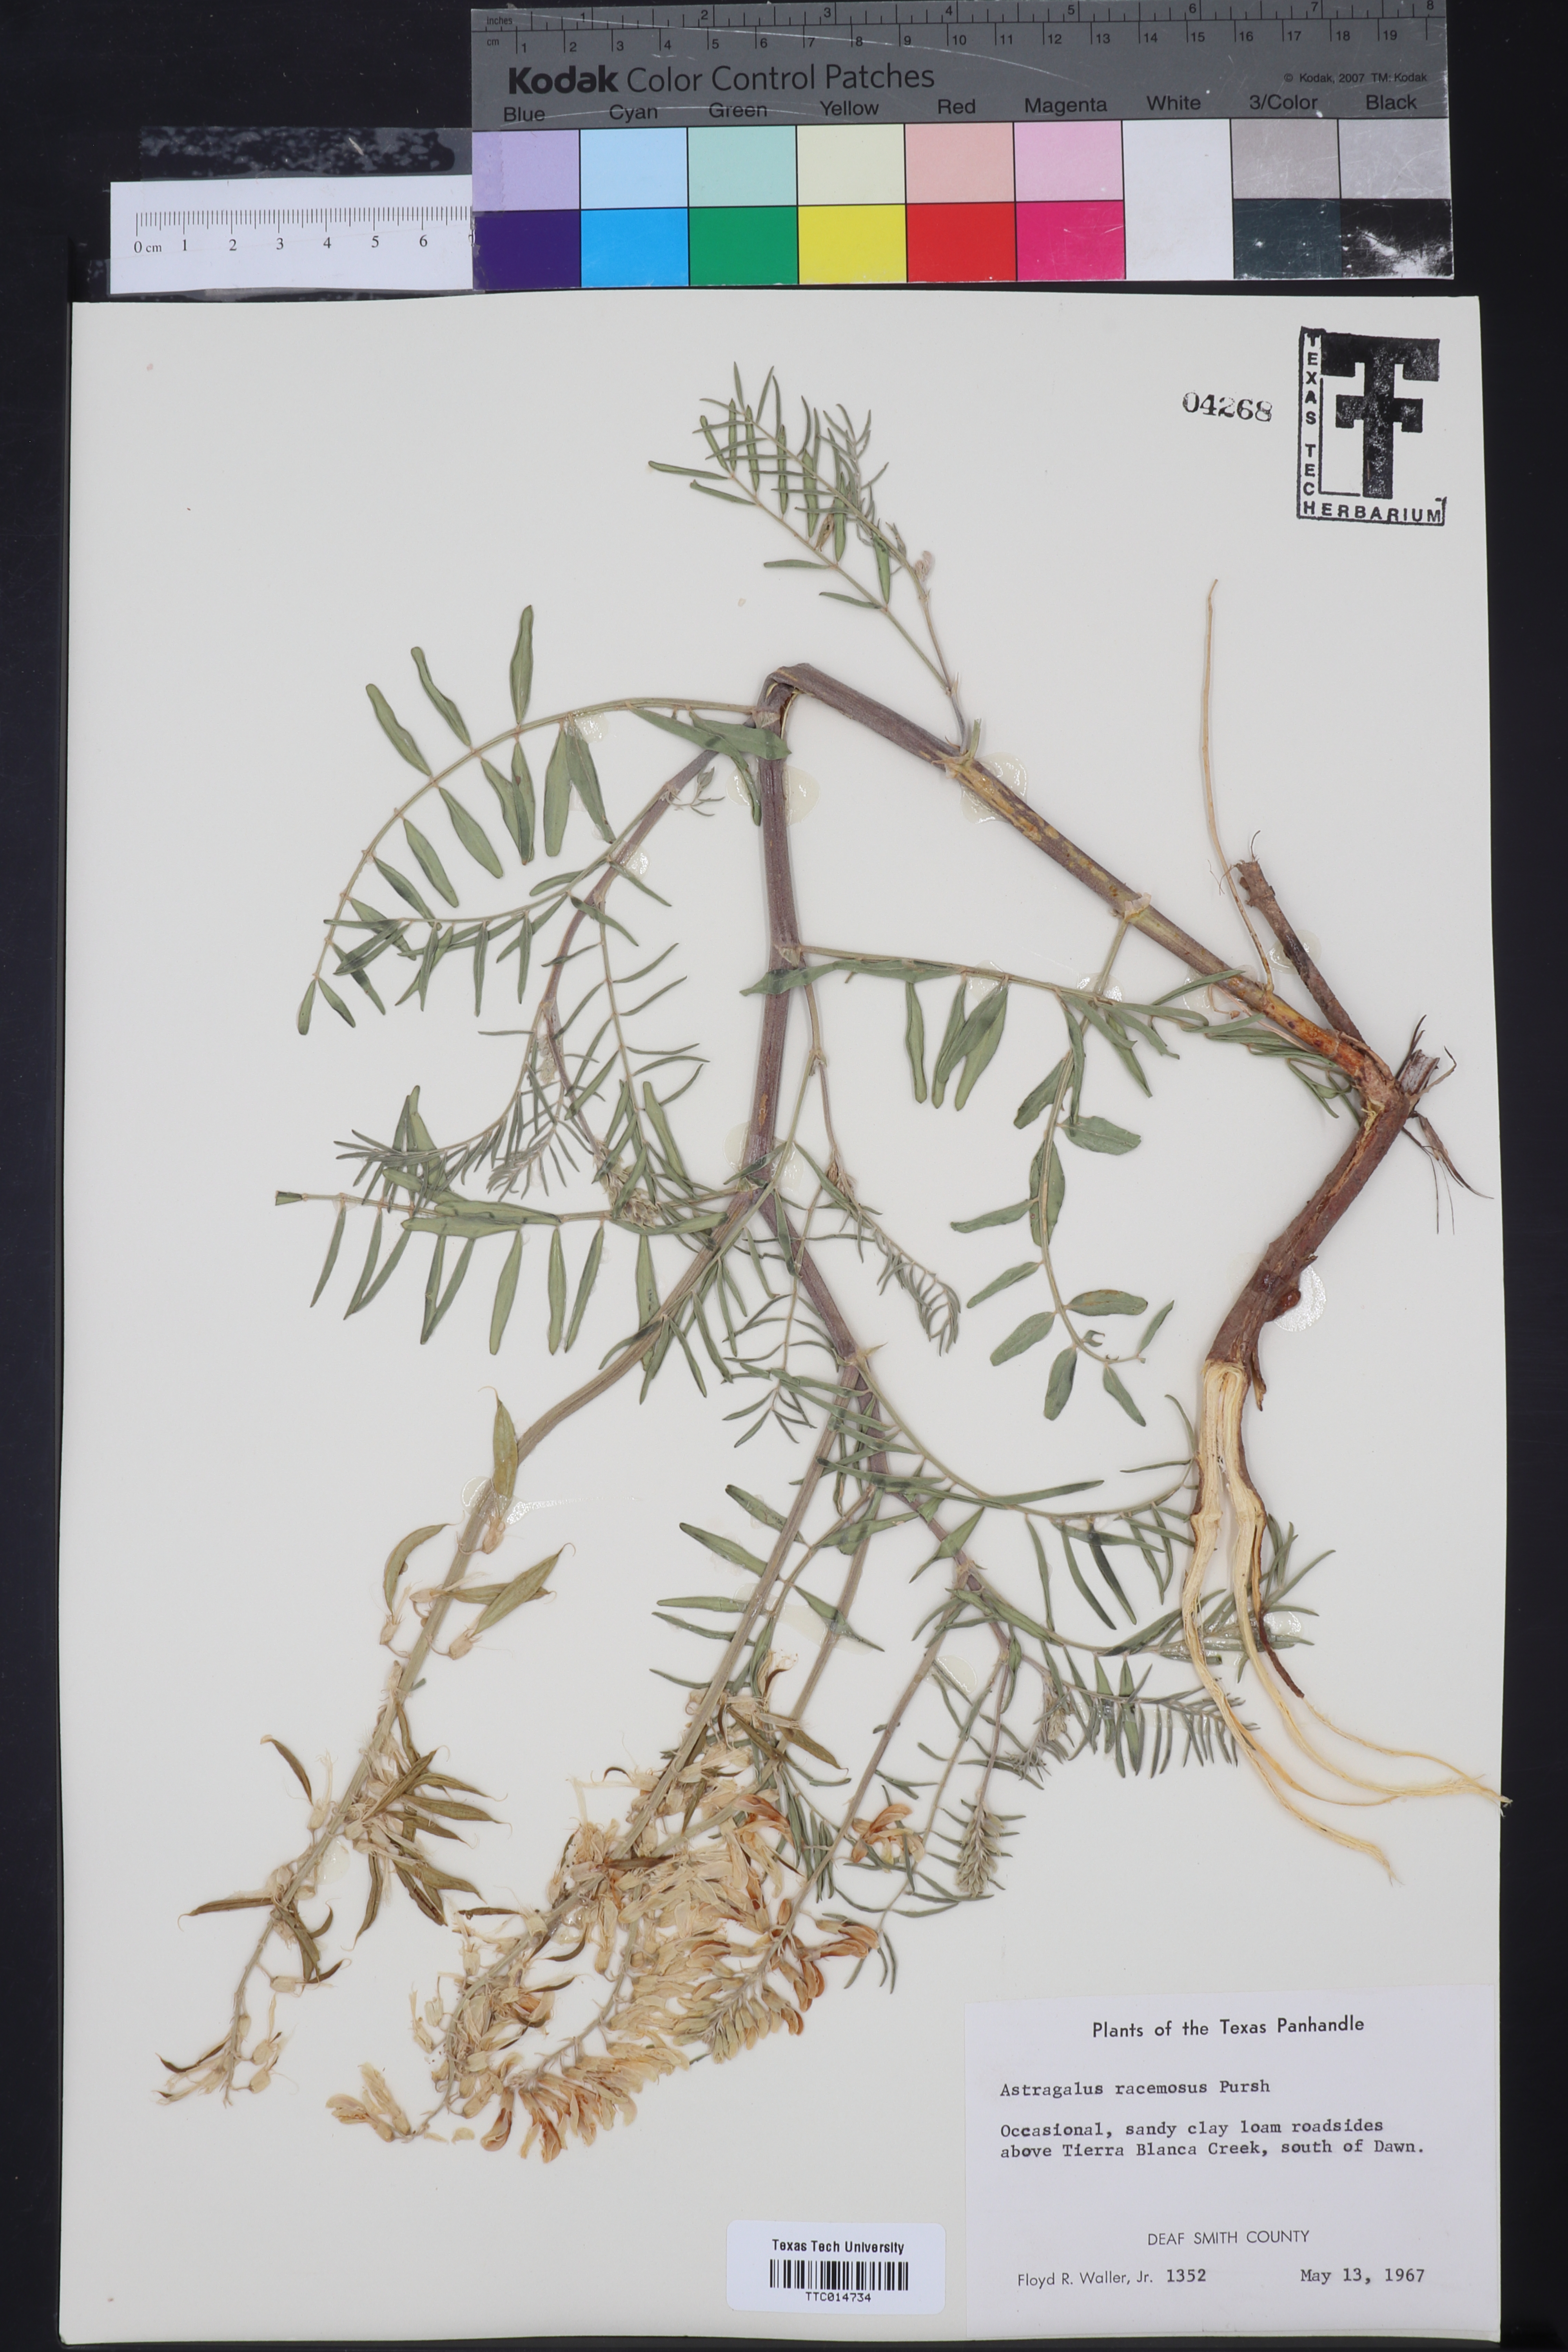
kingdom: Plantae
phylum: Tracheophyta
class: Magnoliopsida
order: Fabales
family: Fabaceae
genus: Astragalus
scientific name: Astragalus racemosus
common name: Alkali milk-vetch
